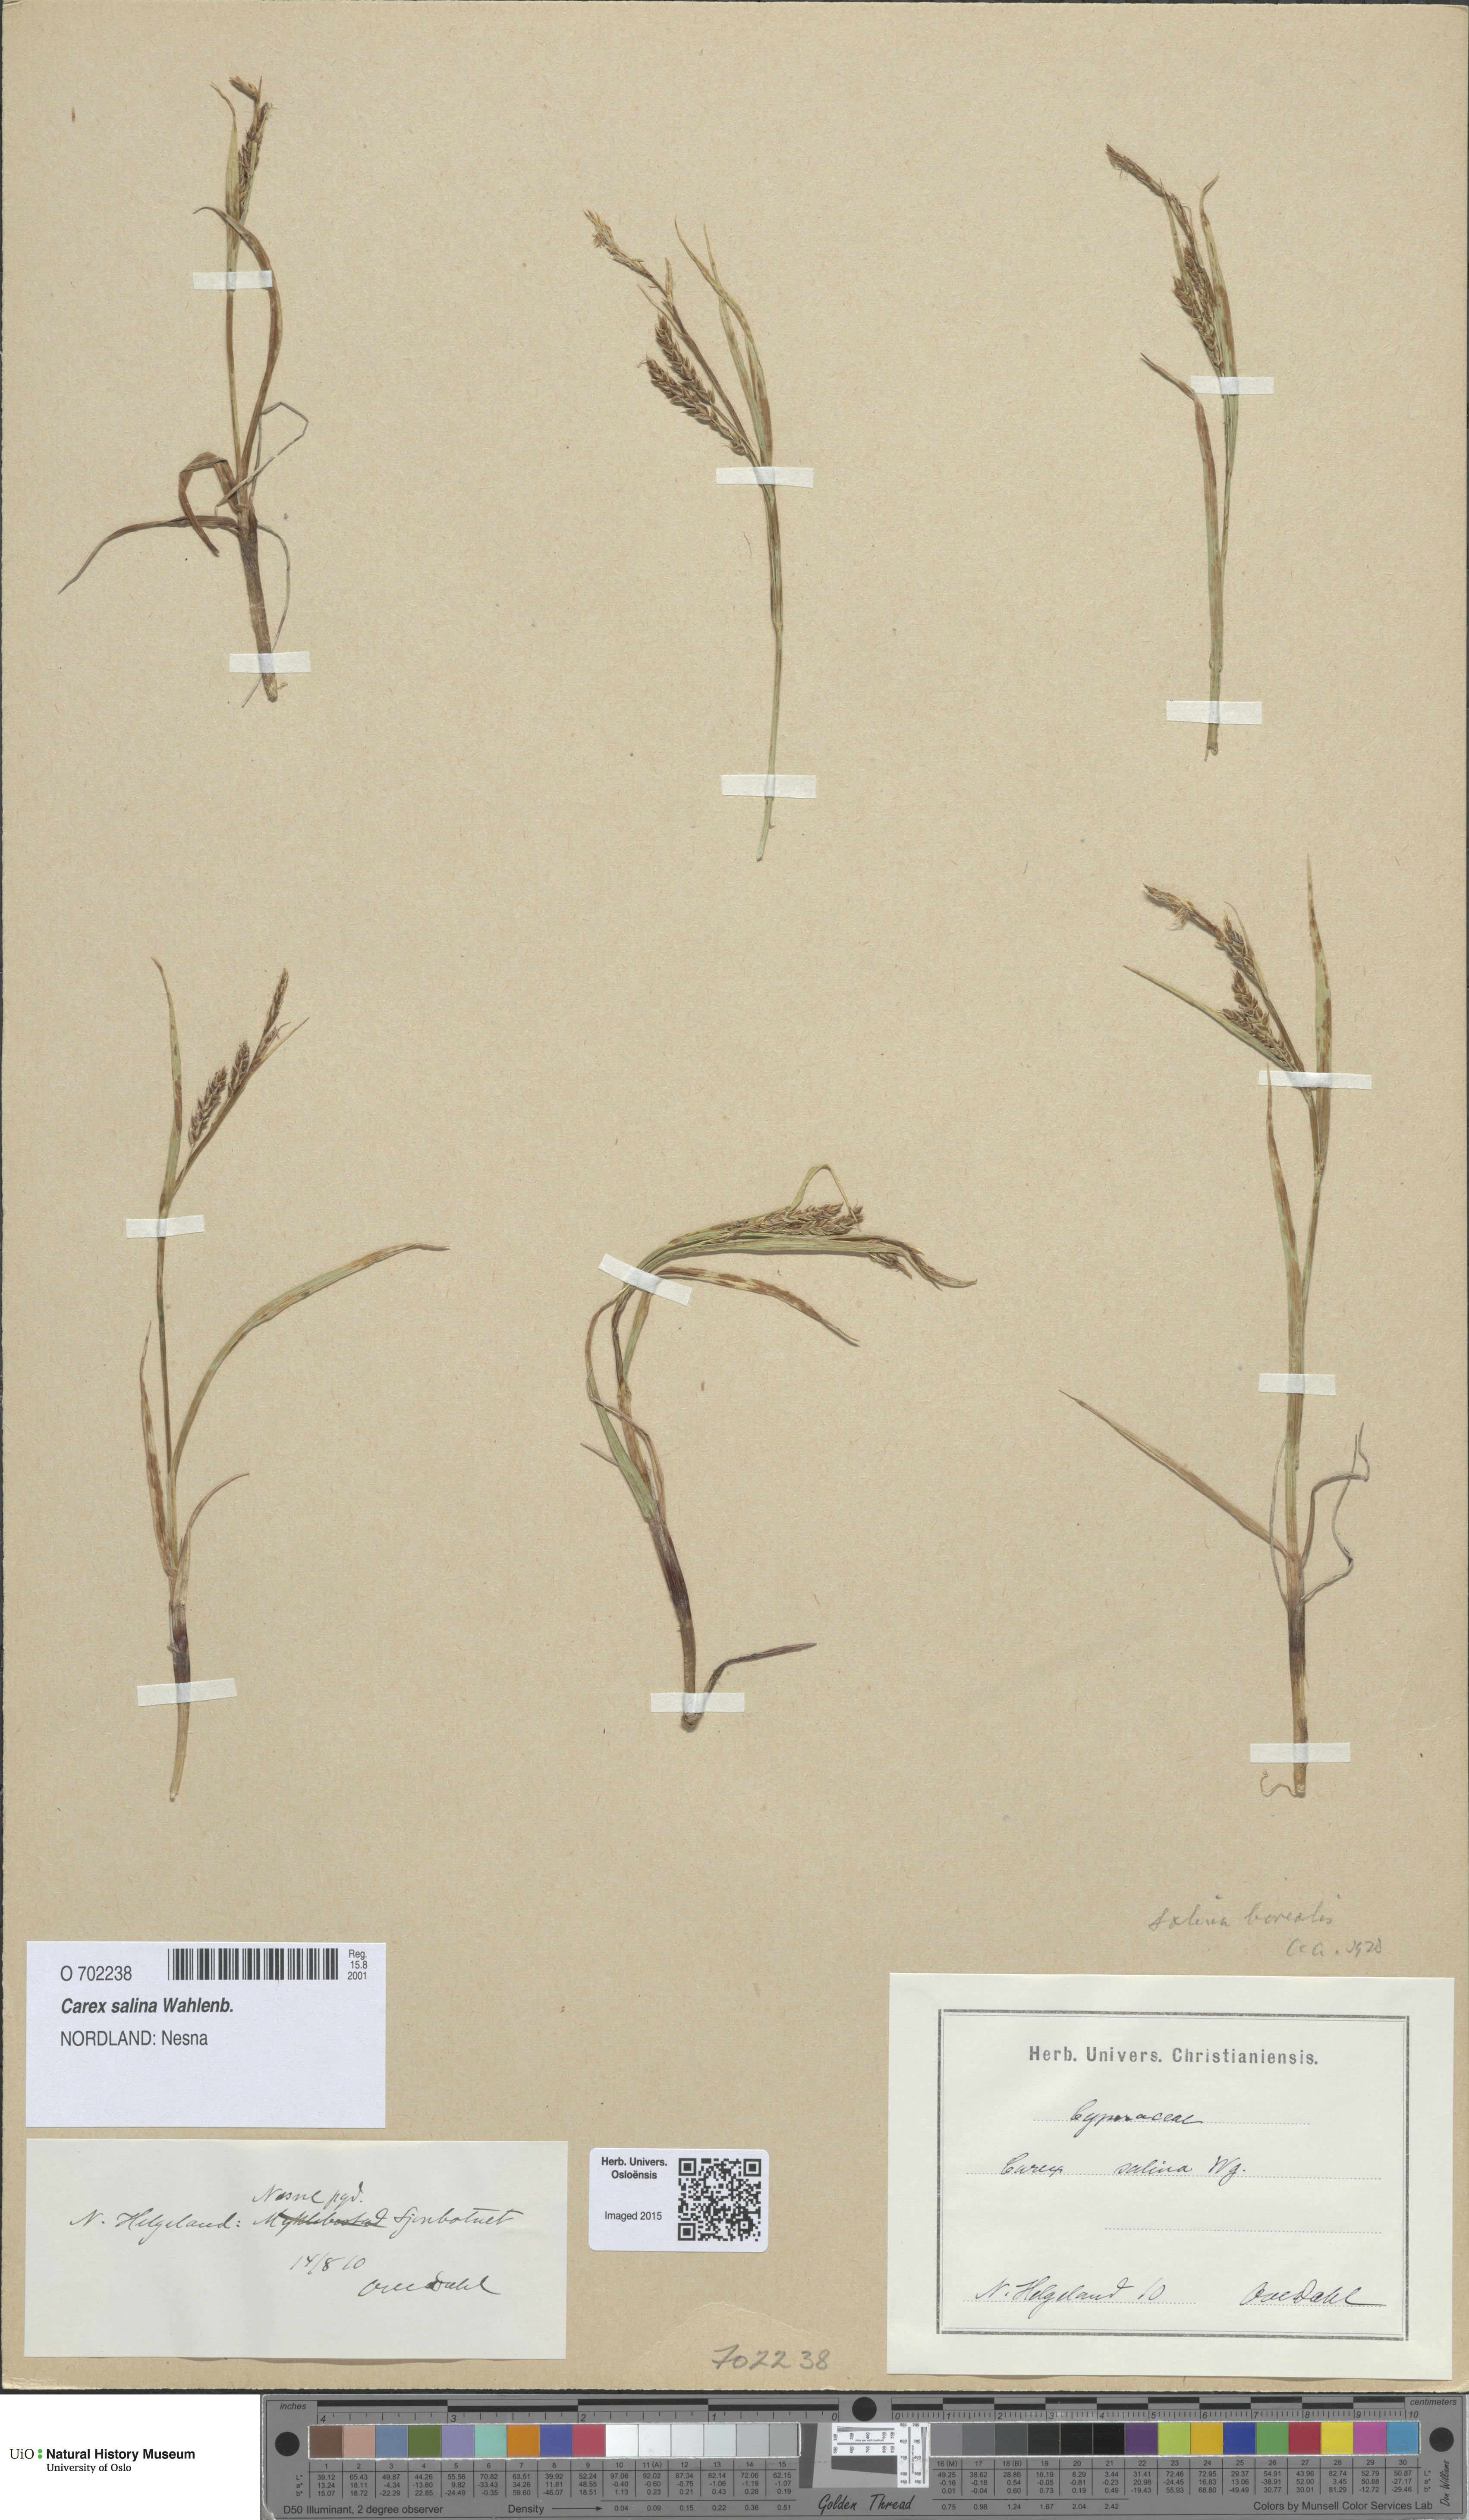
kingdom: Plantae
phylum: Tracheophyta
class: Liliopsida
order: Poales
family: Cyperaceae
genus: Carex
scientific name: Carex salina
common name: Saltmarsh sedge
